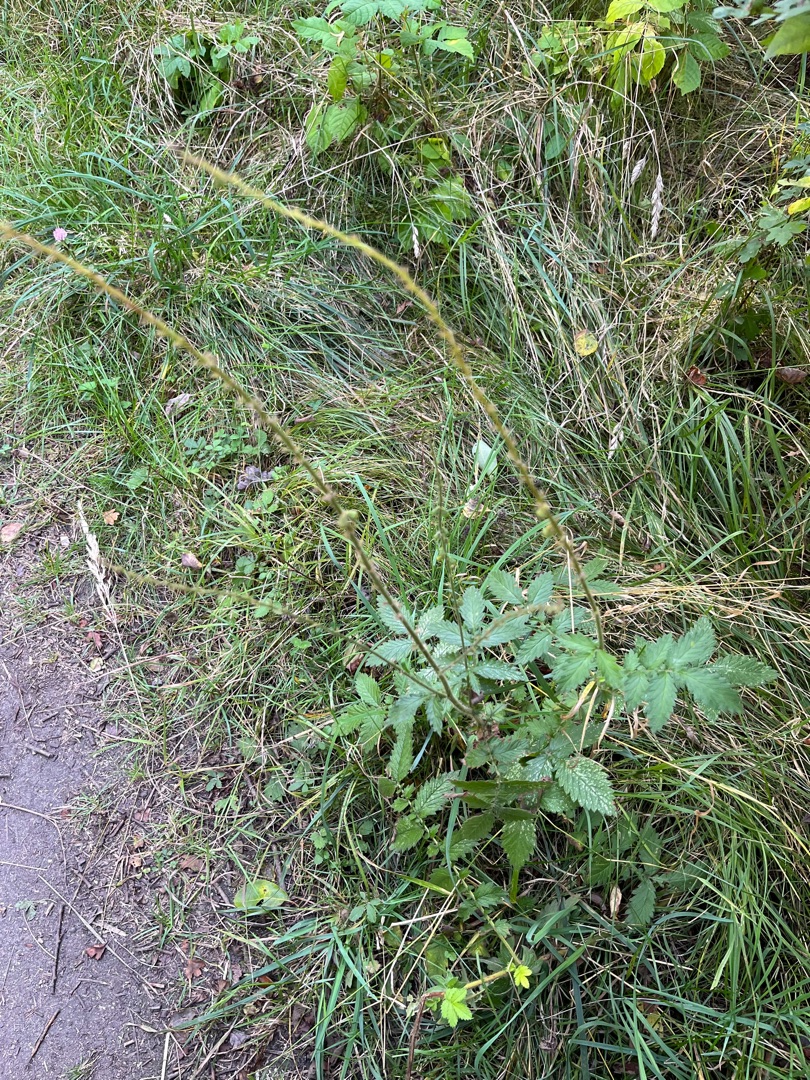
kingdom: Plantae
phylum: Tracheophyta
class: Magnoliopsida
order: Rosales
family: Rosaceae
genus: Agrimonia
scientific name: Agrimonia
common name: Agermåneslægten
